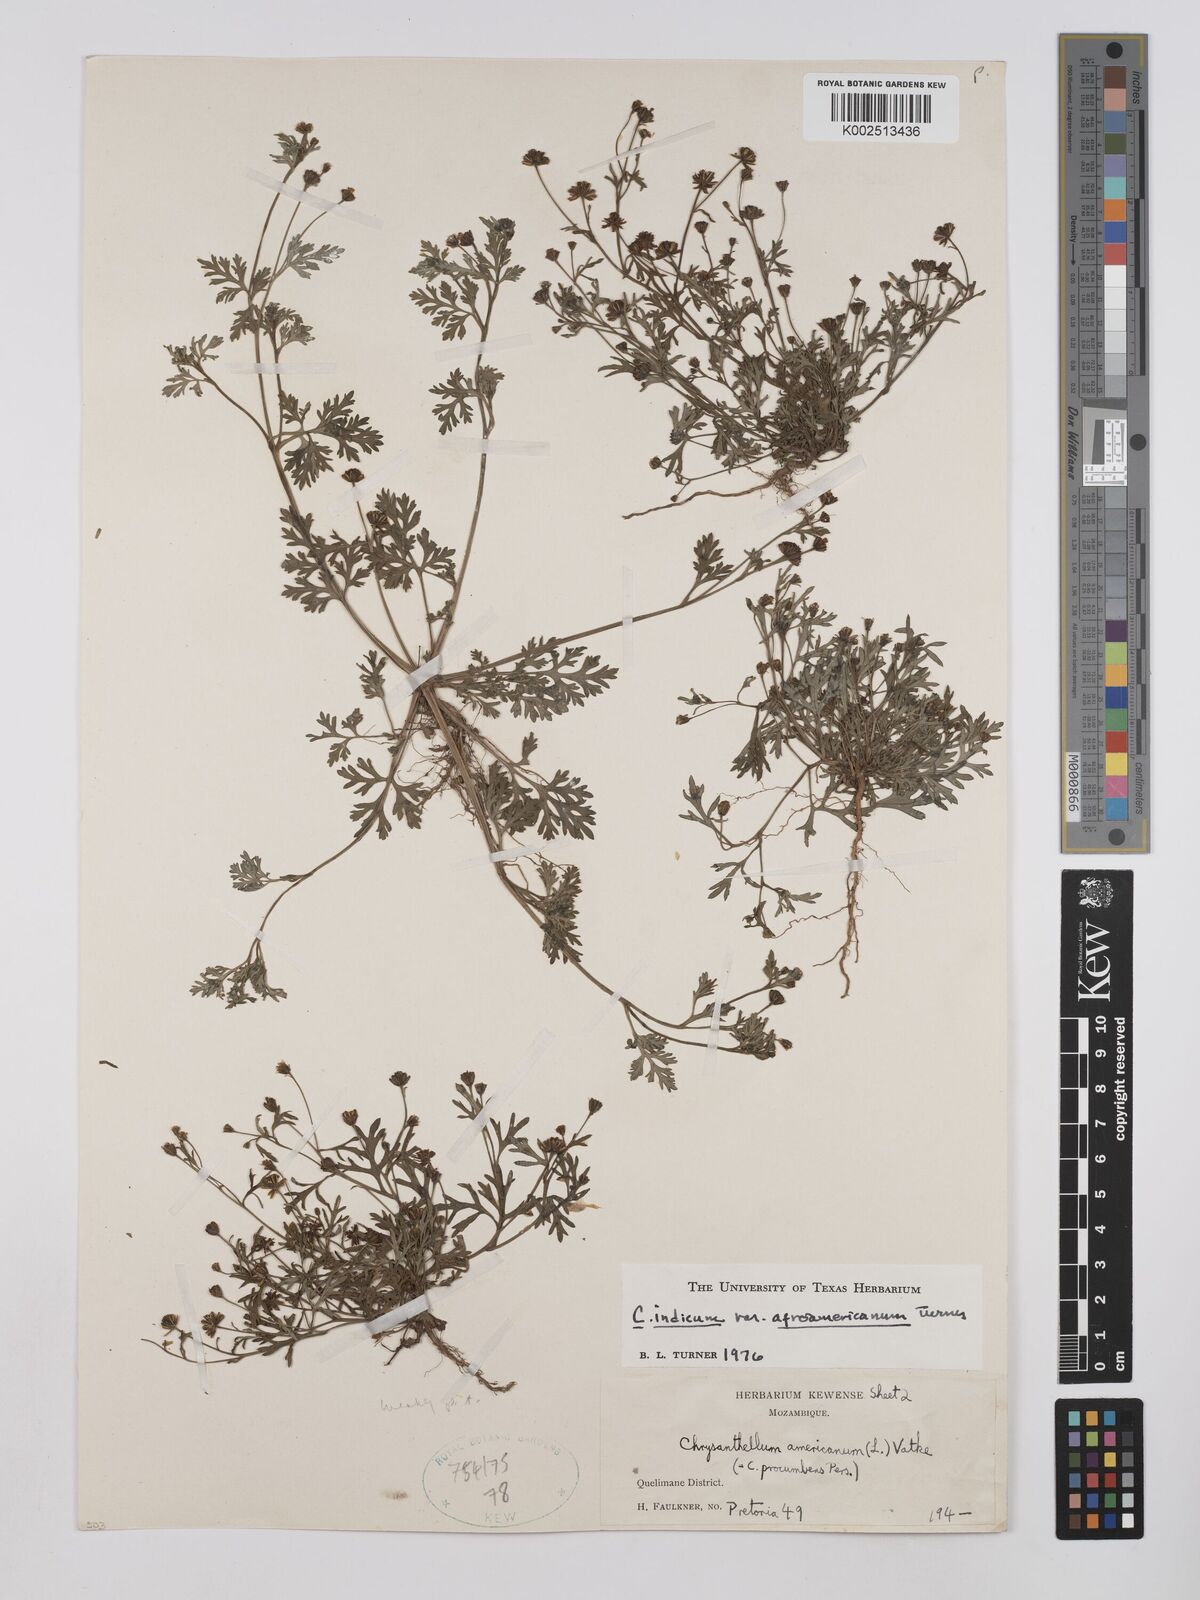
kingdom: Plantae
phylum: Tracheophyta
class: Magnoliopsida
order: Asterales
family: Asteraceae
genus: Chrysanthellum
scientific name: Chrysanthellum indicum
